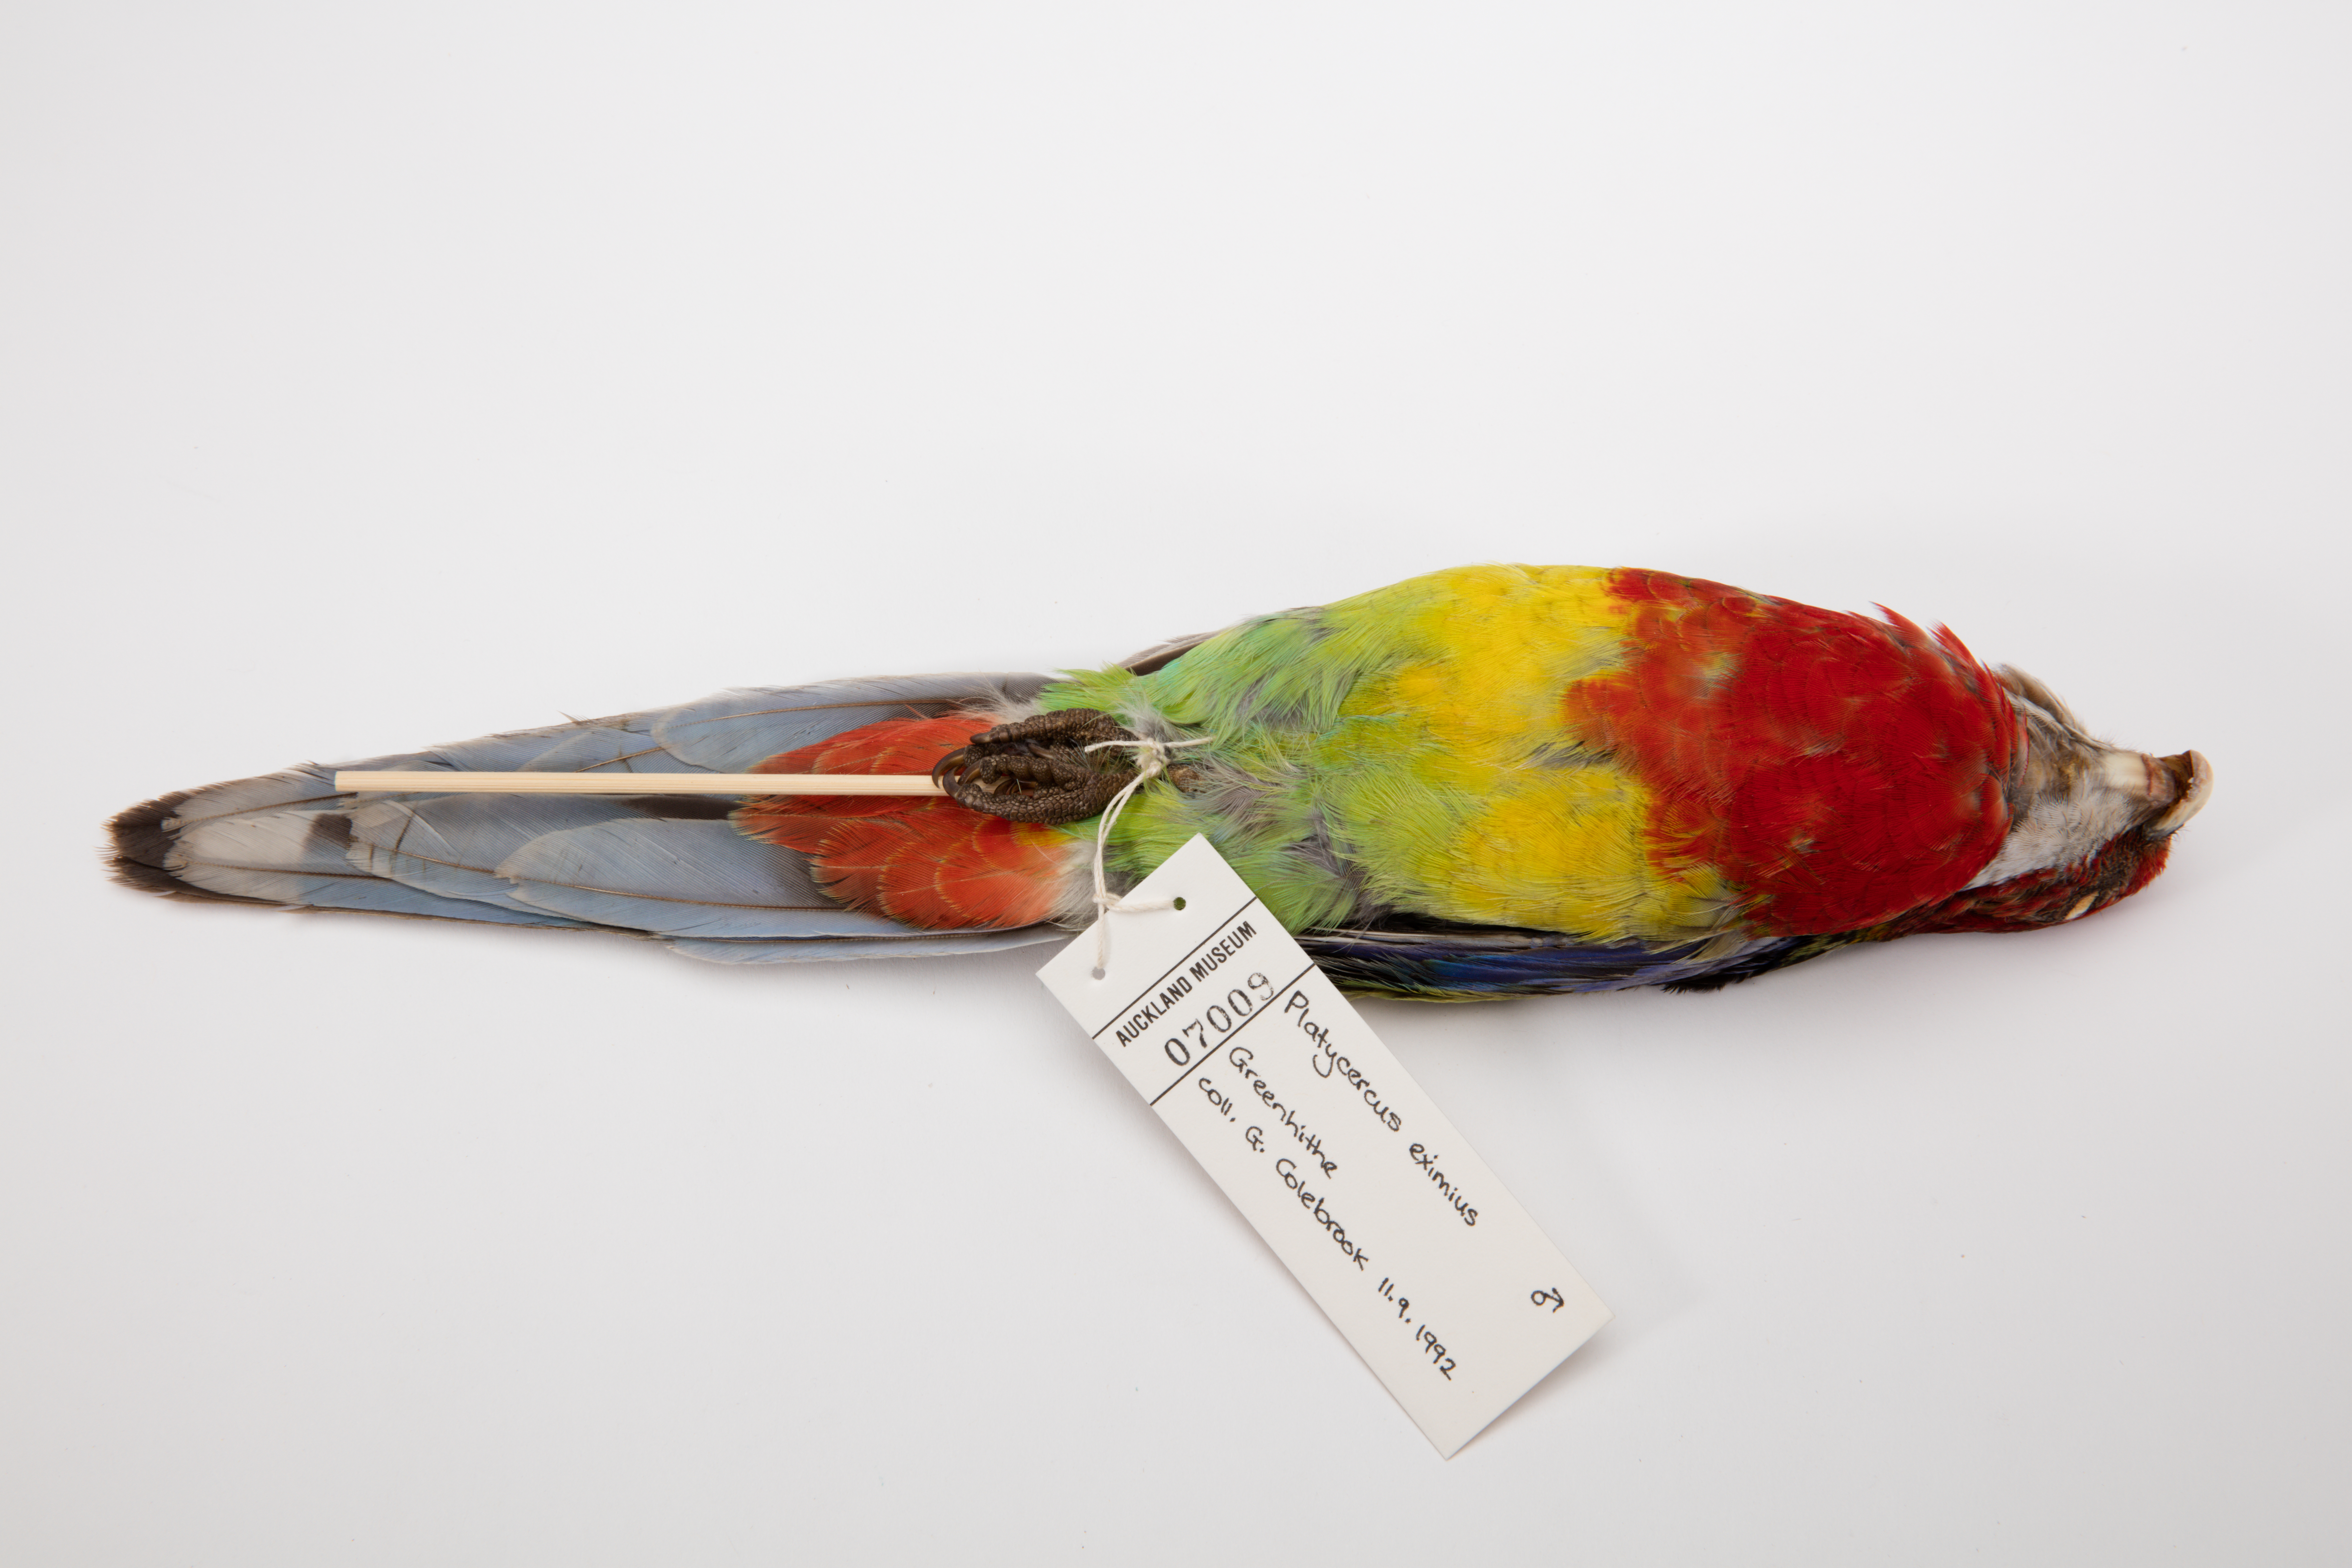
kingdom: Animalia
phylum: Chordata
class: Aves
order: Psittaciformes
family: Psittacidae
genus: Platycercus
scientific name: Platycercus eximius
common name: Eastern rosella
